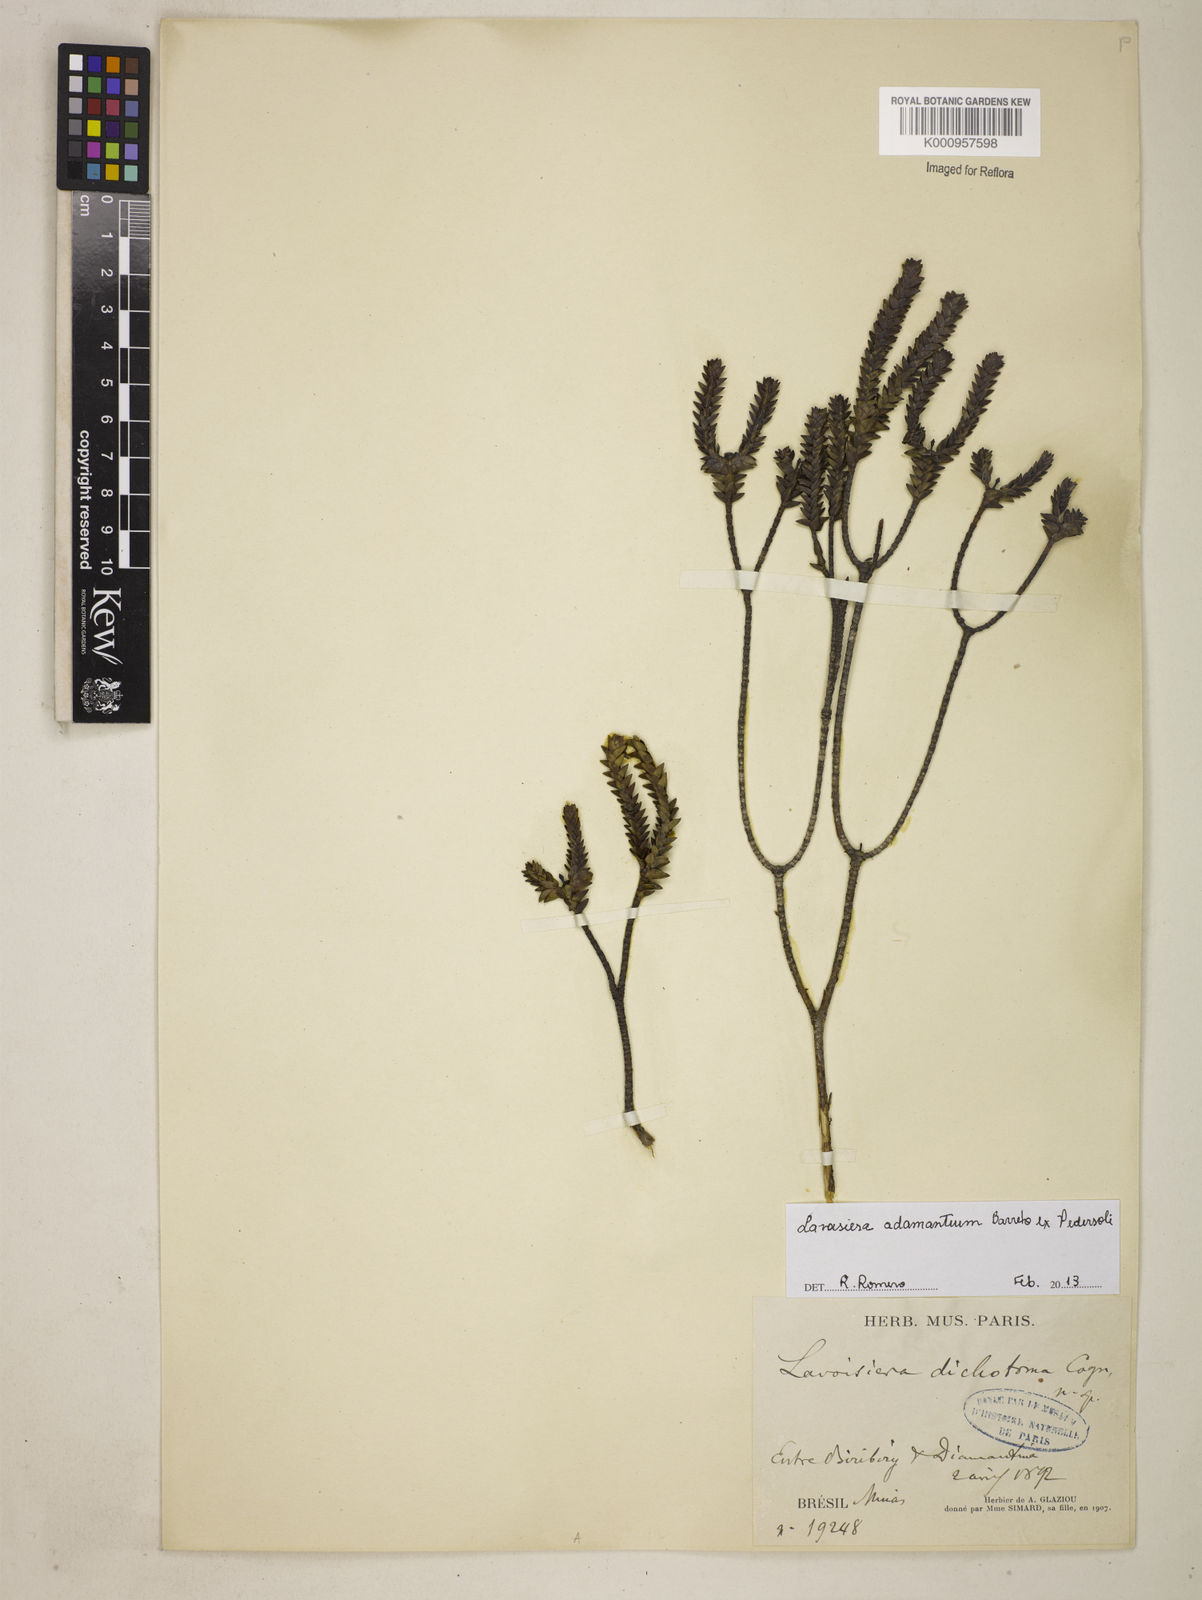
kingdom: Plantae
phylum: Tracheophyta
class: Magnoliopsida
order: Myrtales
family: Melastomataceae
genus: Microlicia
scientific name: Microlicia adamantium
